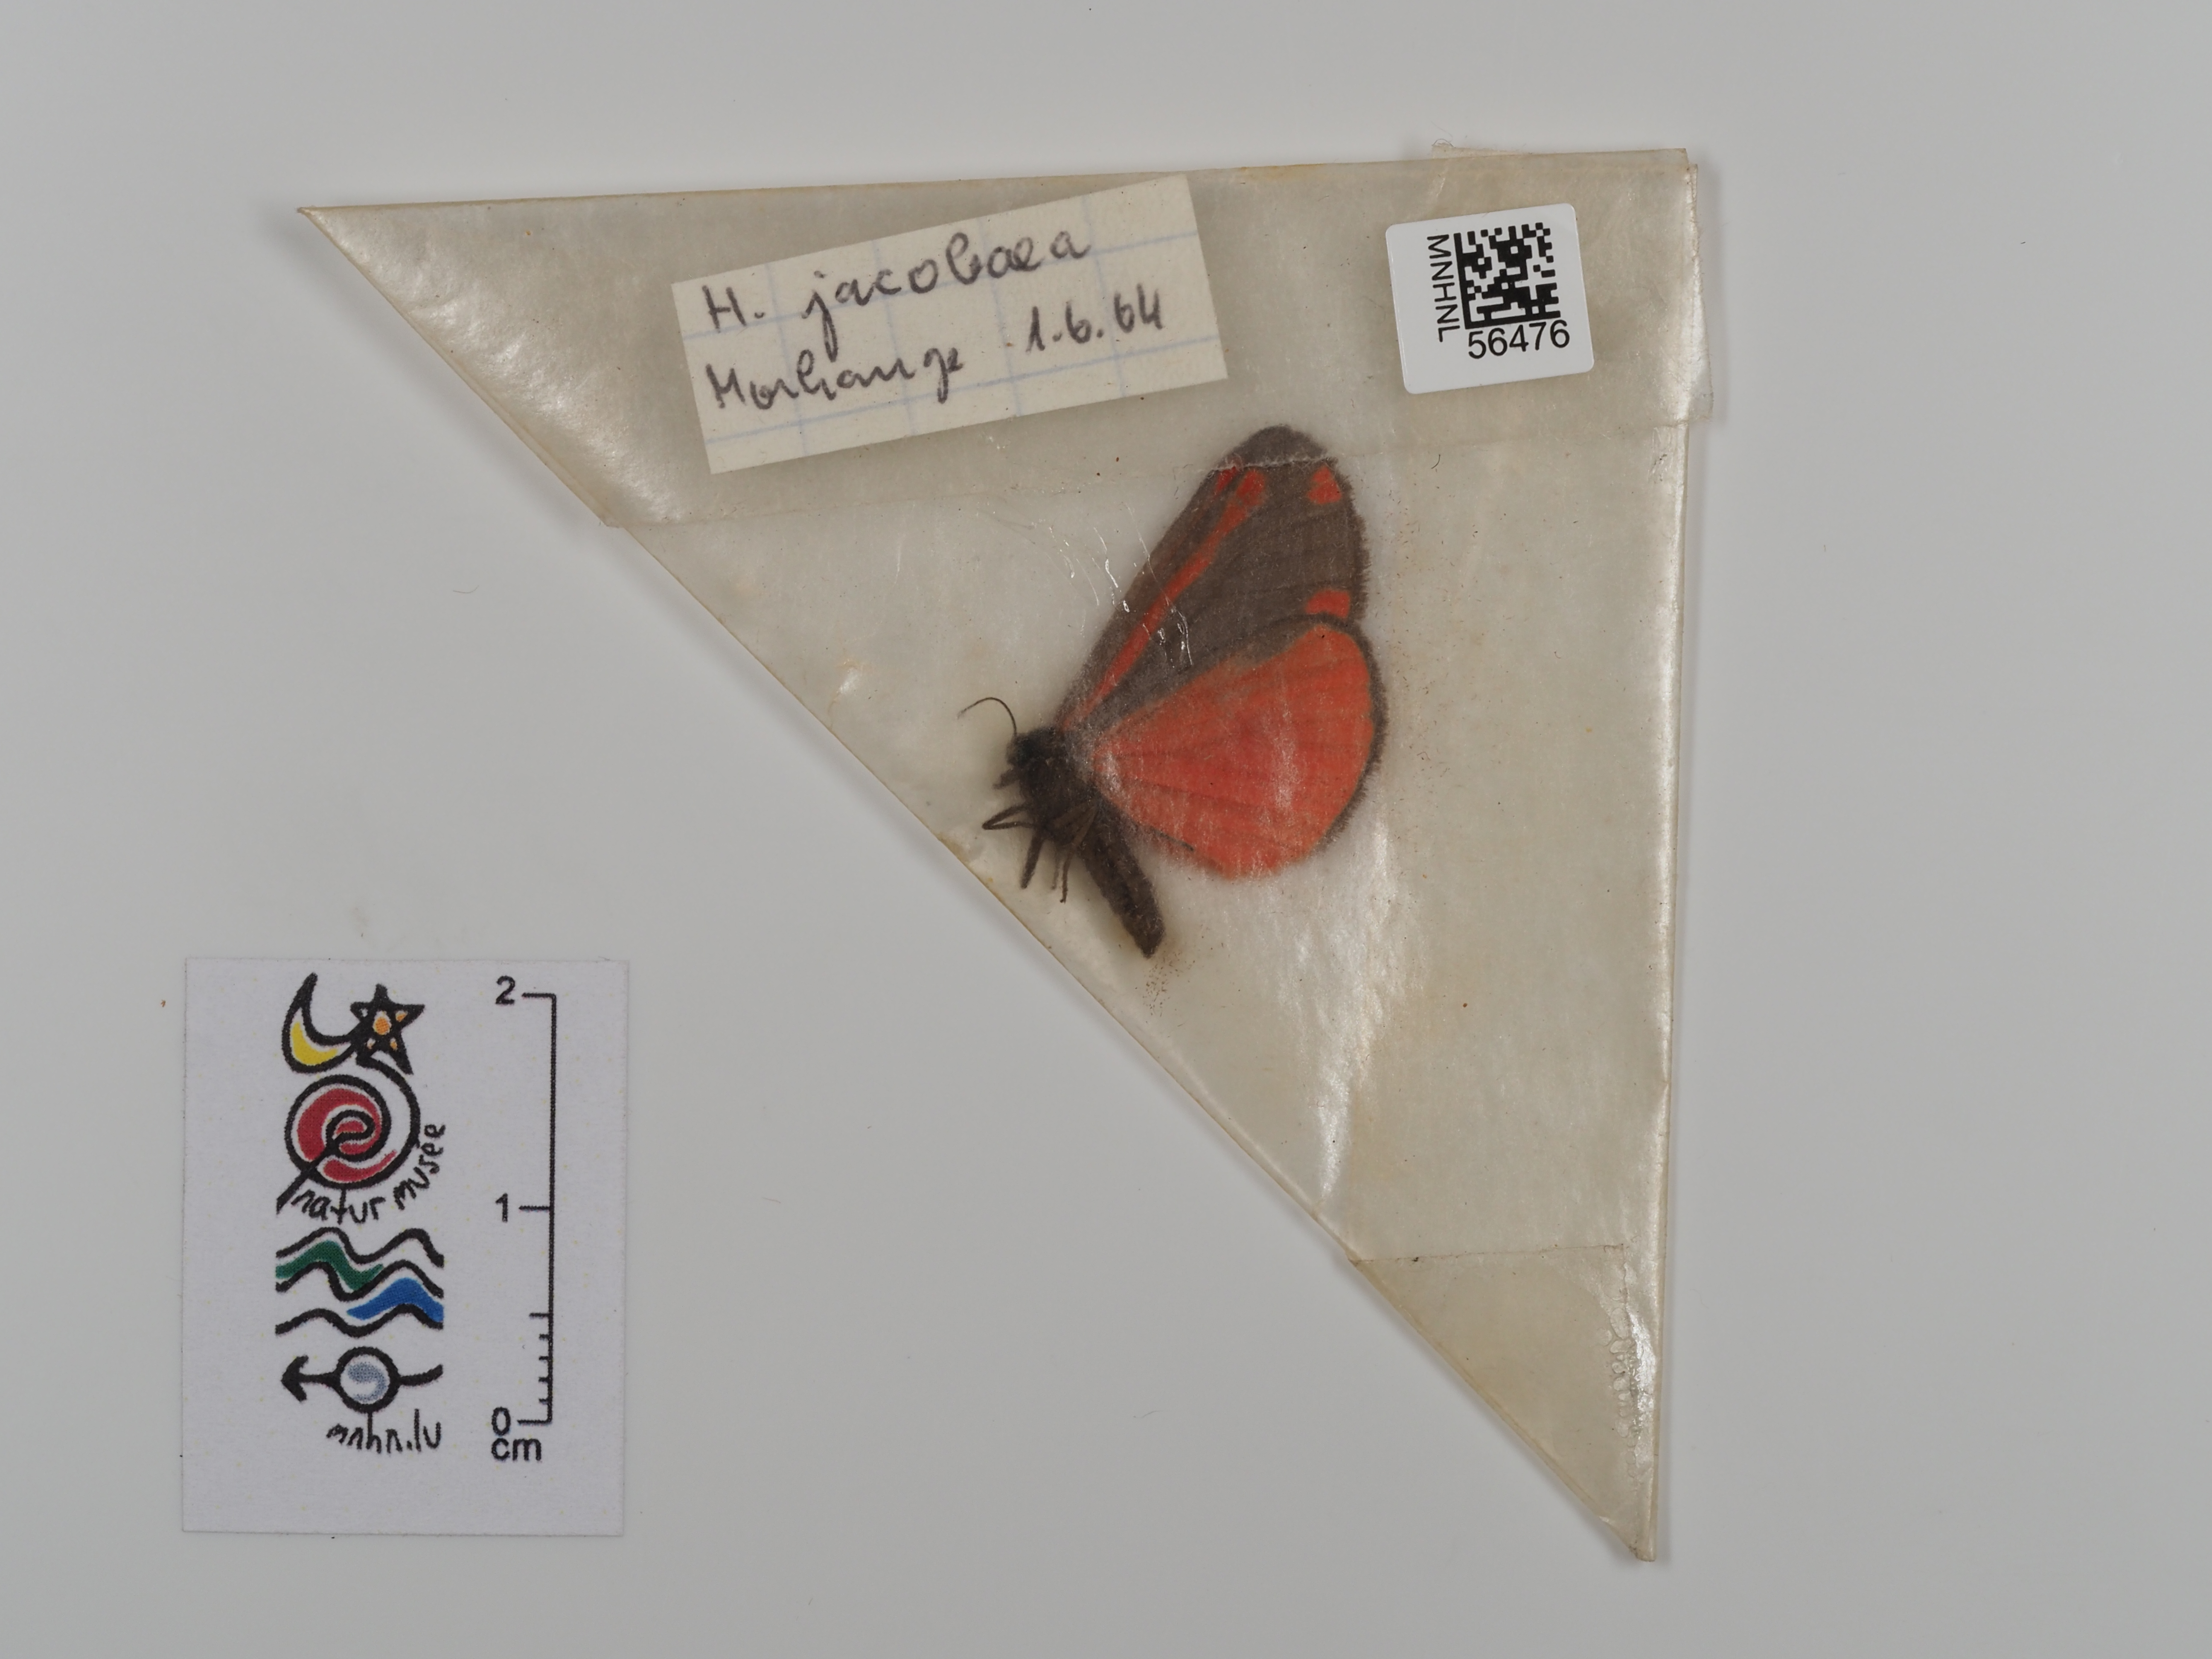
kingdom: Animalia
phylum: Arthropoda
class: Insecta
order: Lepidoptera
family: Erebidae
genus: Tyria
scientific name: Tyria jacobaeae
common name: Cinnabar
